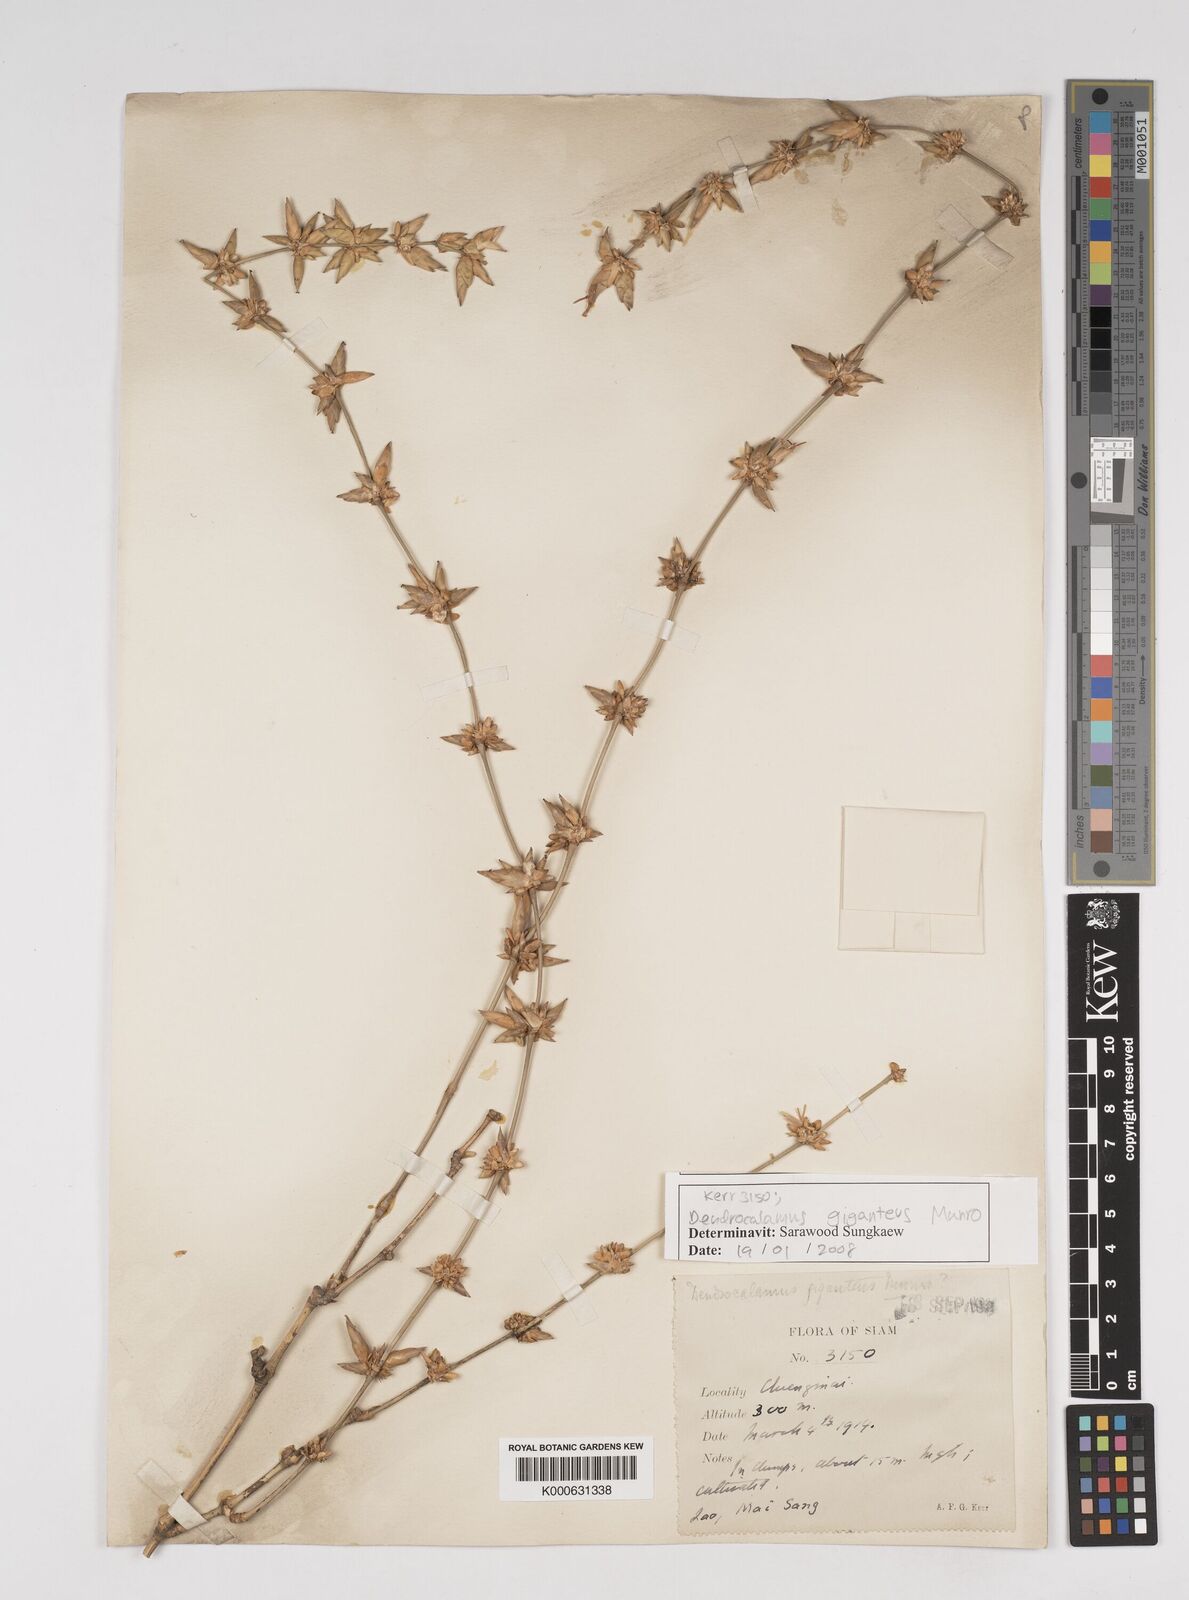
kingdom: Plantae
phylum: Tracheophyta
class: Liliopsida
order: Poales
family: Poaceae
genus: Dendrocalamus
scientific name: Dendrocalamus giganteus
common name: Giant bamboo
